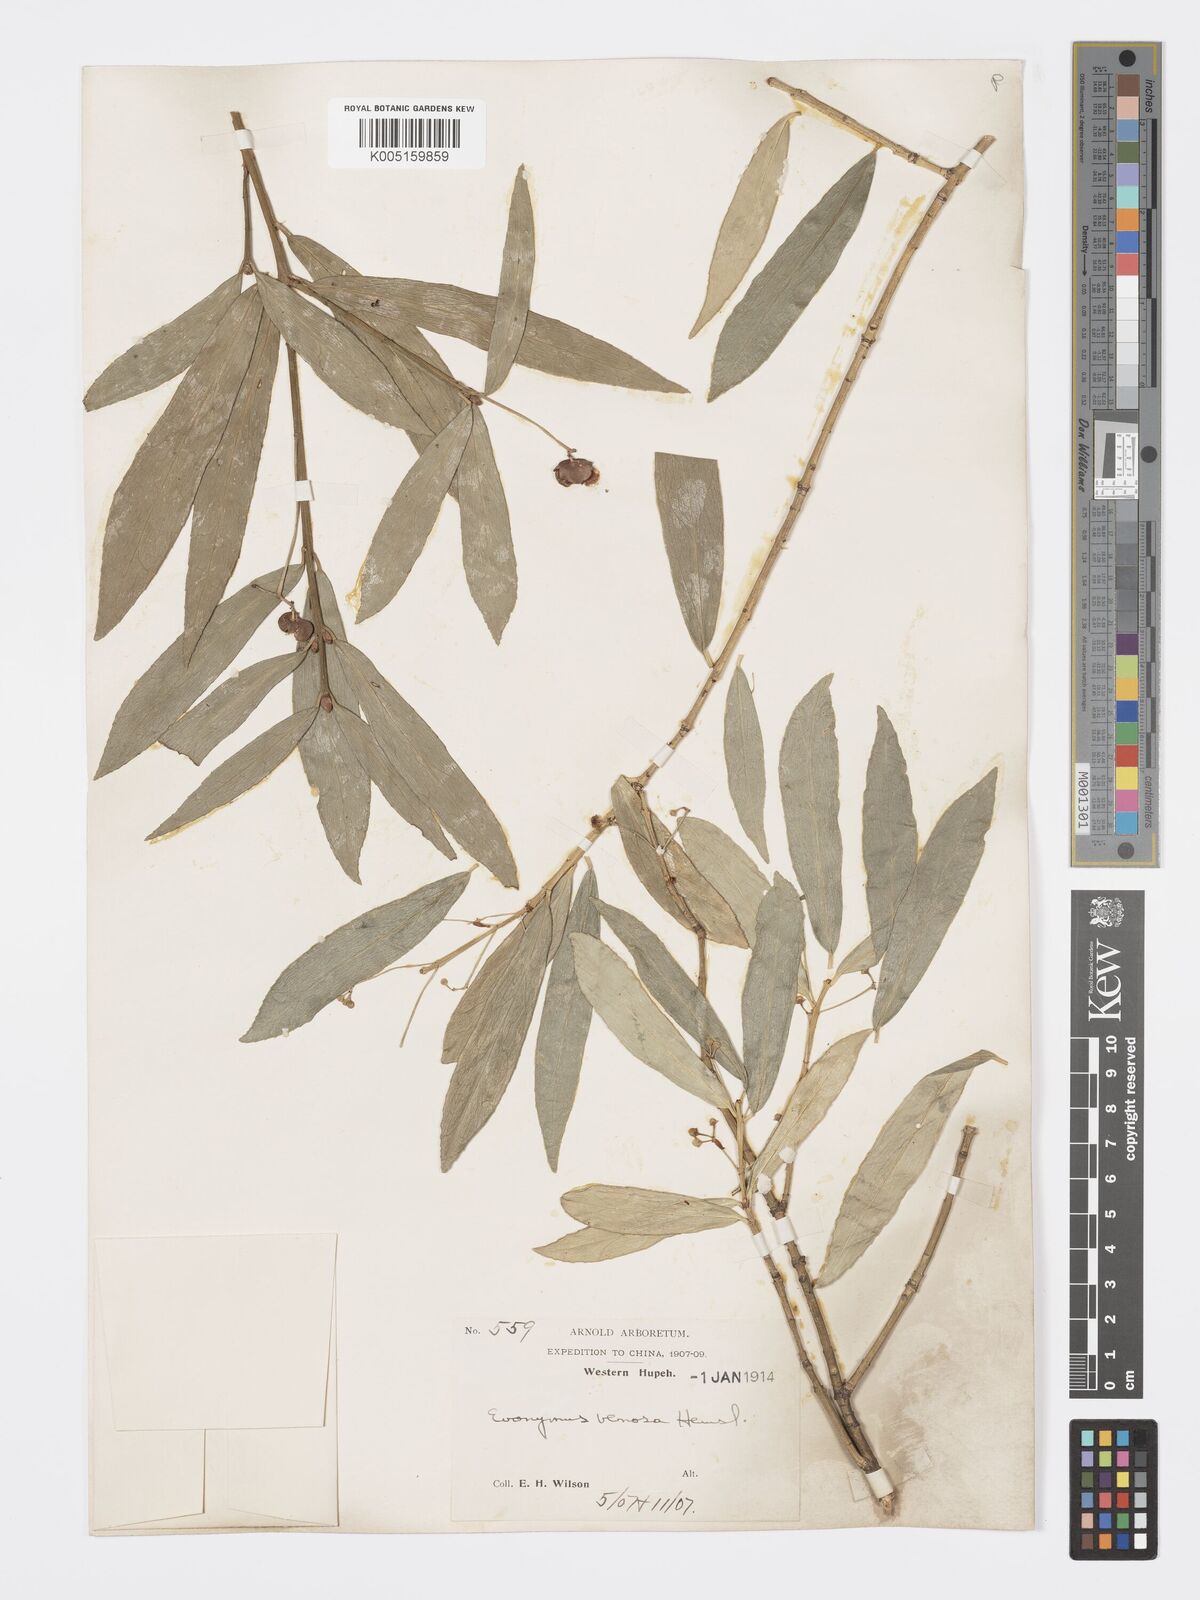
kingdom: Plantae
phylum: Tracheophyta
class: Magnoliopsida
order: Celastrales
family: Celastraceae
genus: Euonymus
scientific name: Euonymus venosus
